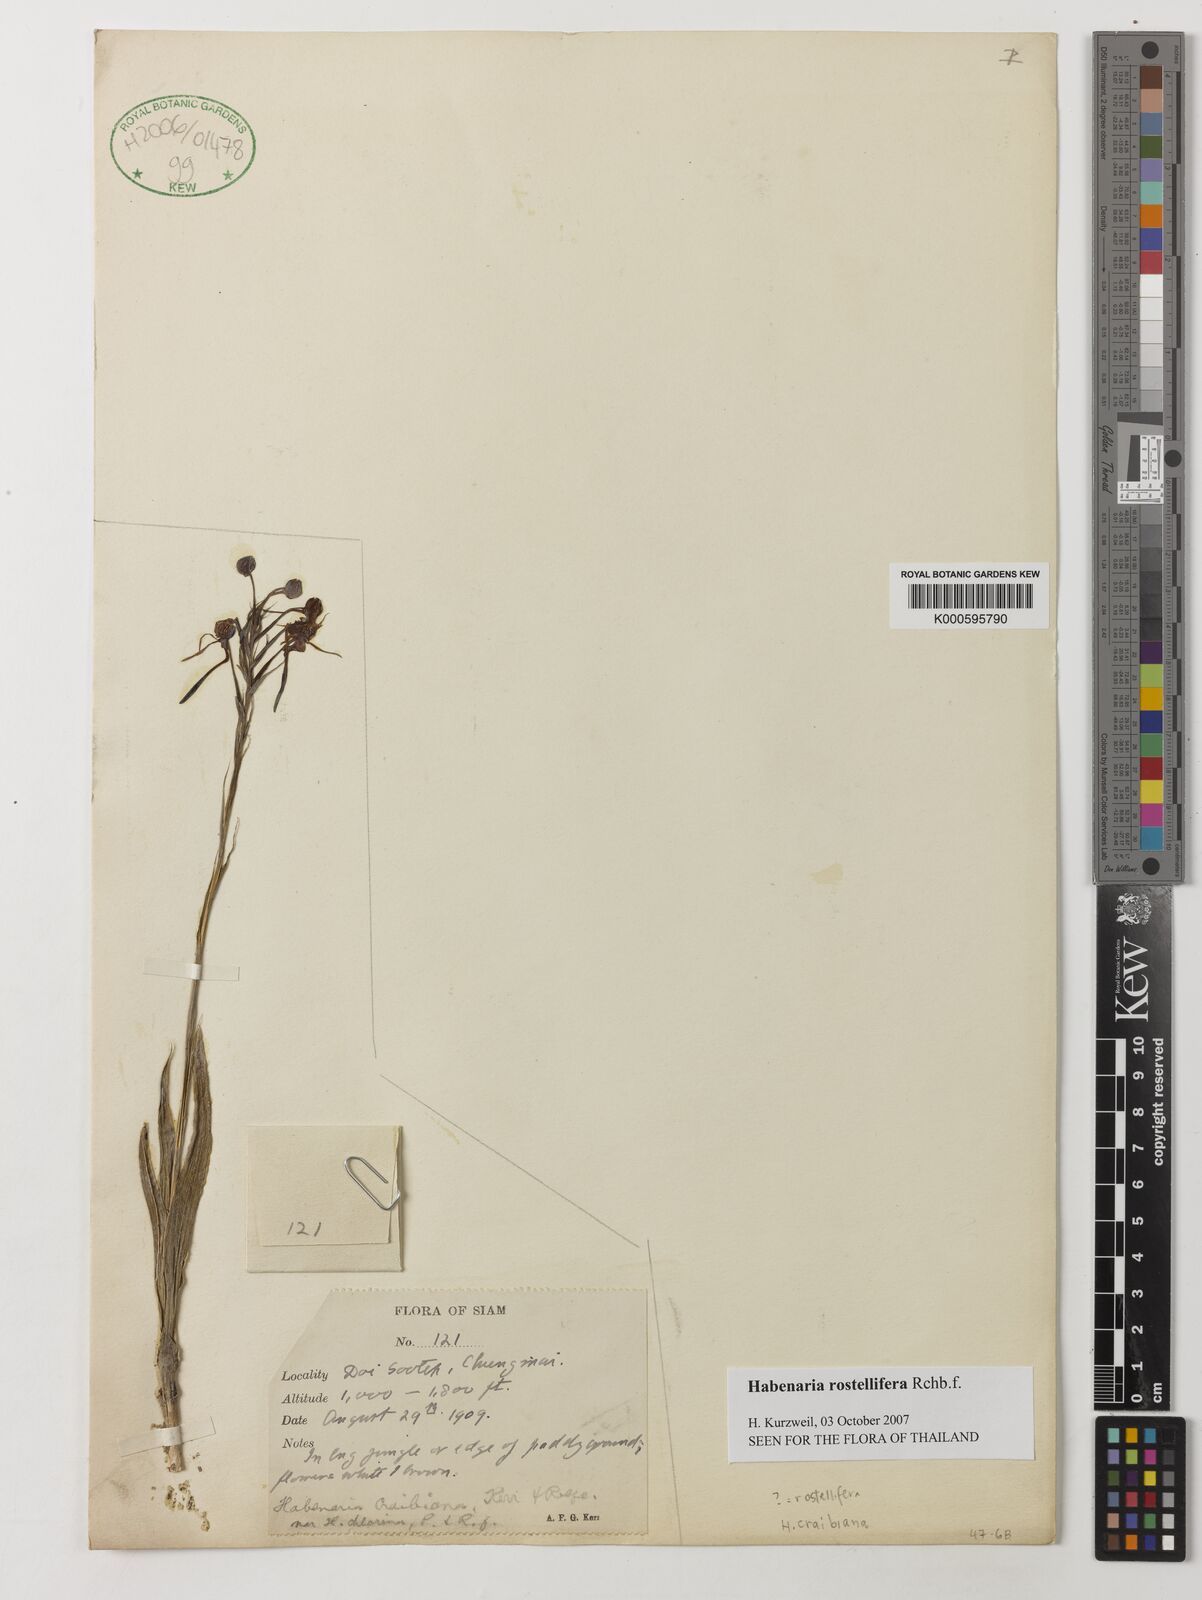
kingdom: Plantae
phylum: Tracheophyta
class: Liliopsida
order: Asparagales
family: Orchidaceae
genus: Habenaria
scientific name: Habenaria rostellifera
